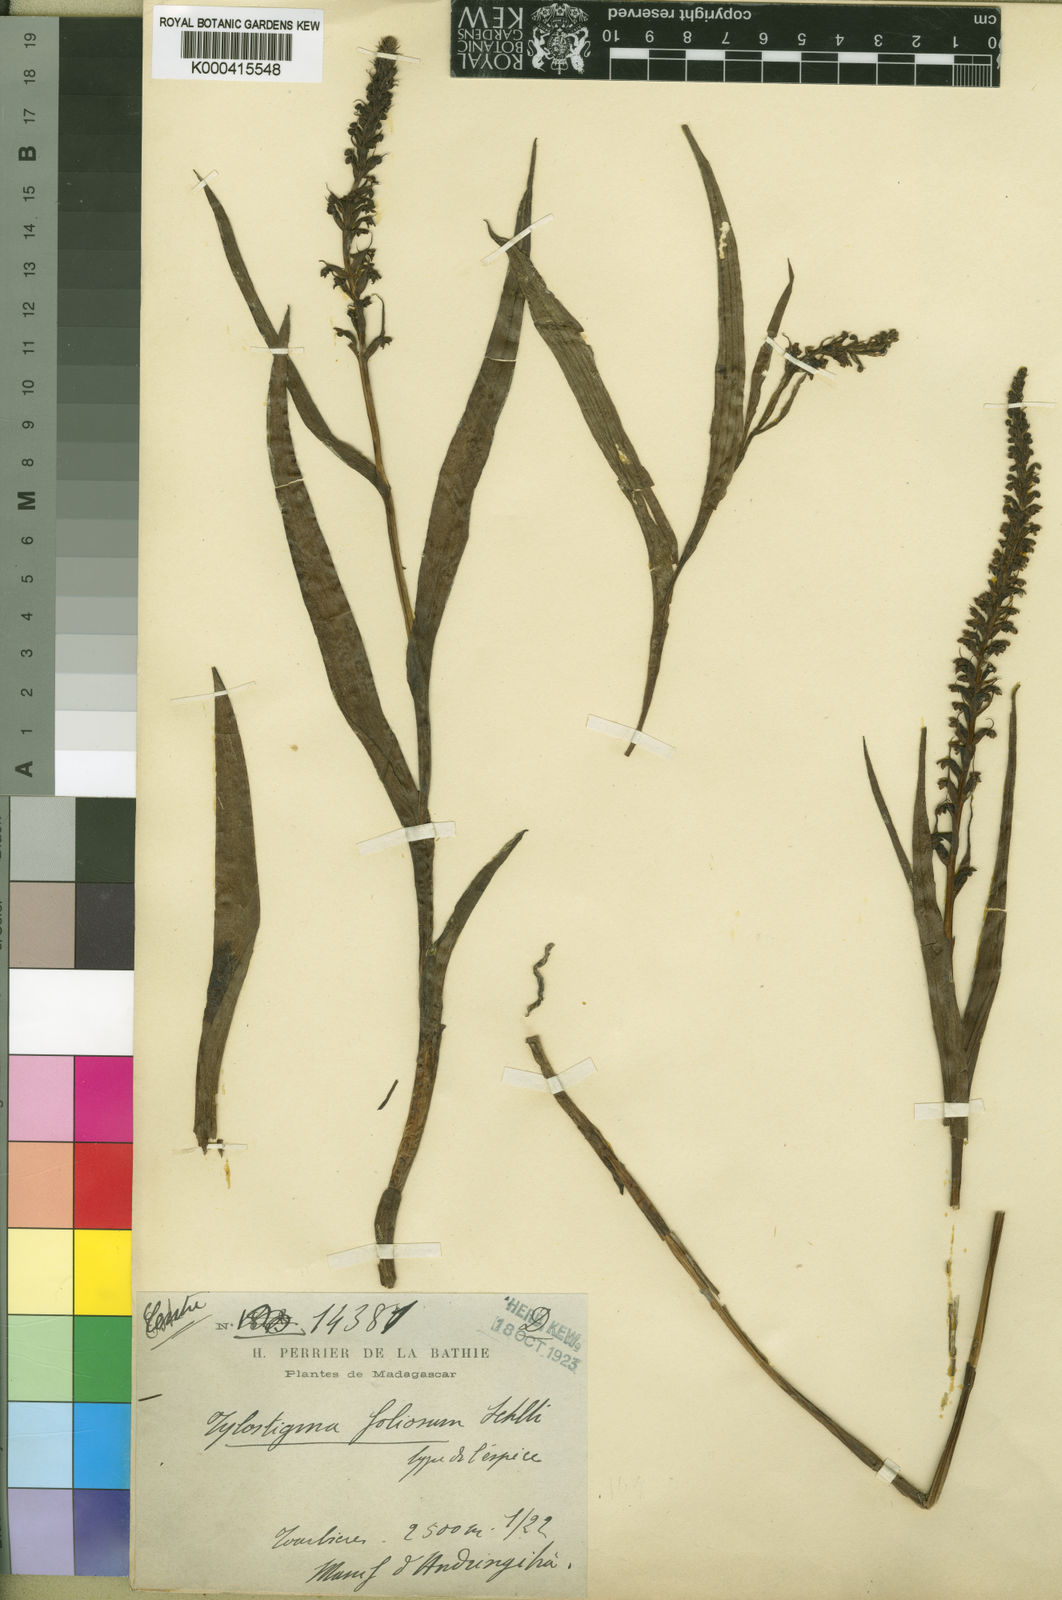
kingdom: Plantae
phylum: Tracheophyta
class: Liliopsida
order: Asparagales
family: Orchidaceae
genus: Tylostigma
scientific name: Tylostigma foliosum
